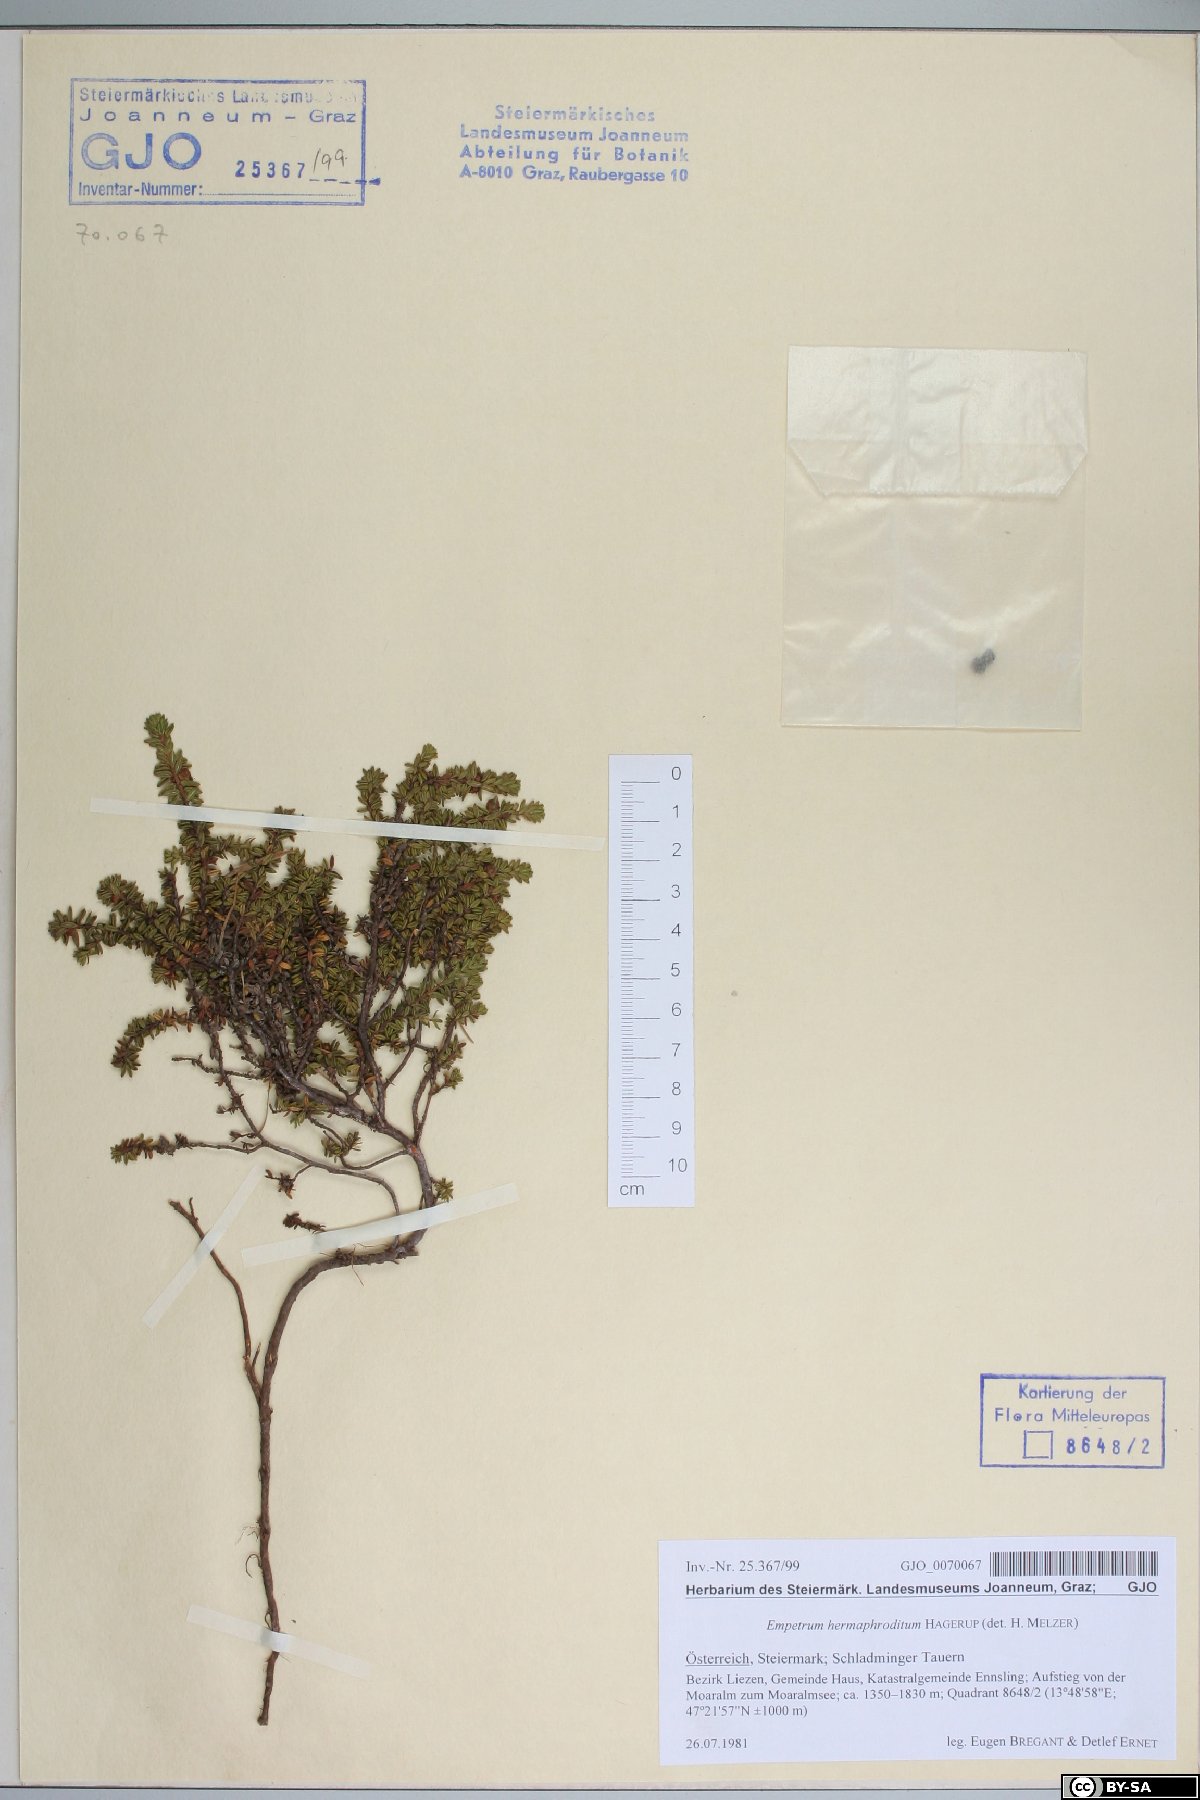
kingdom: Plantae
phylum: Tracheophyta
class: Magnoliopsida
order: Ericales
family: Ericaceae
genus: Empetrum
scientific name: Empetrum hermaphroditum
